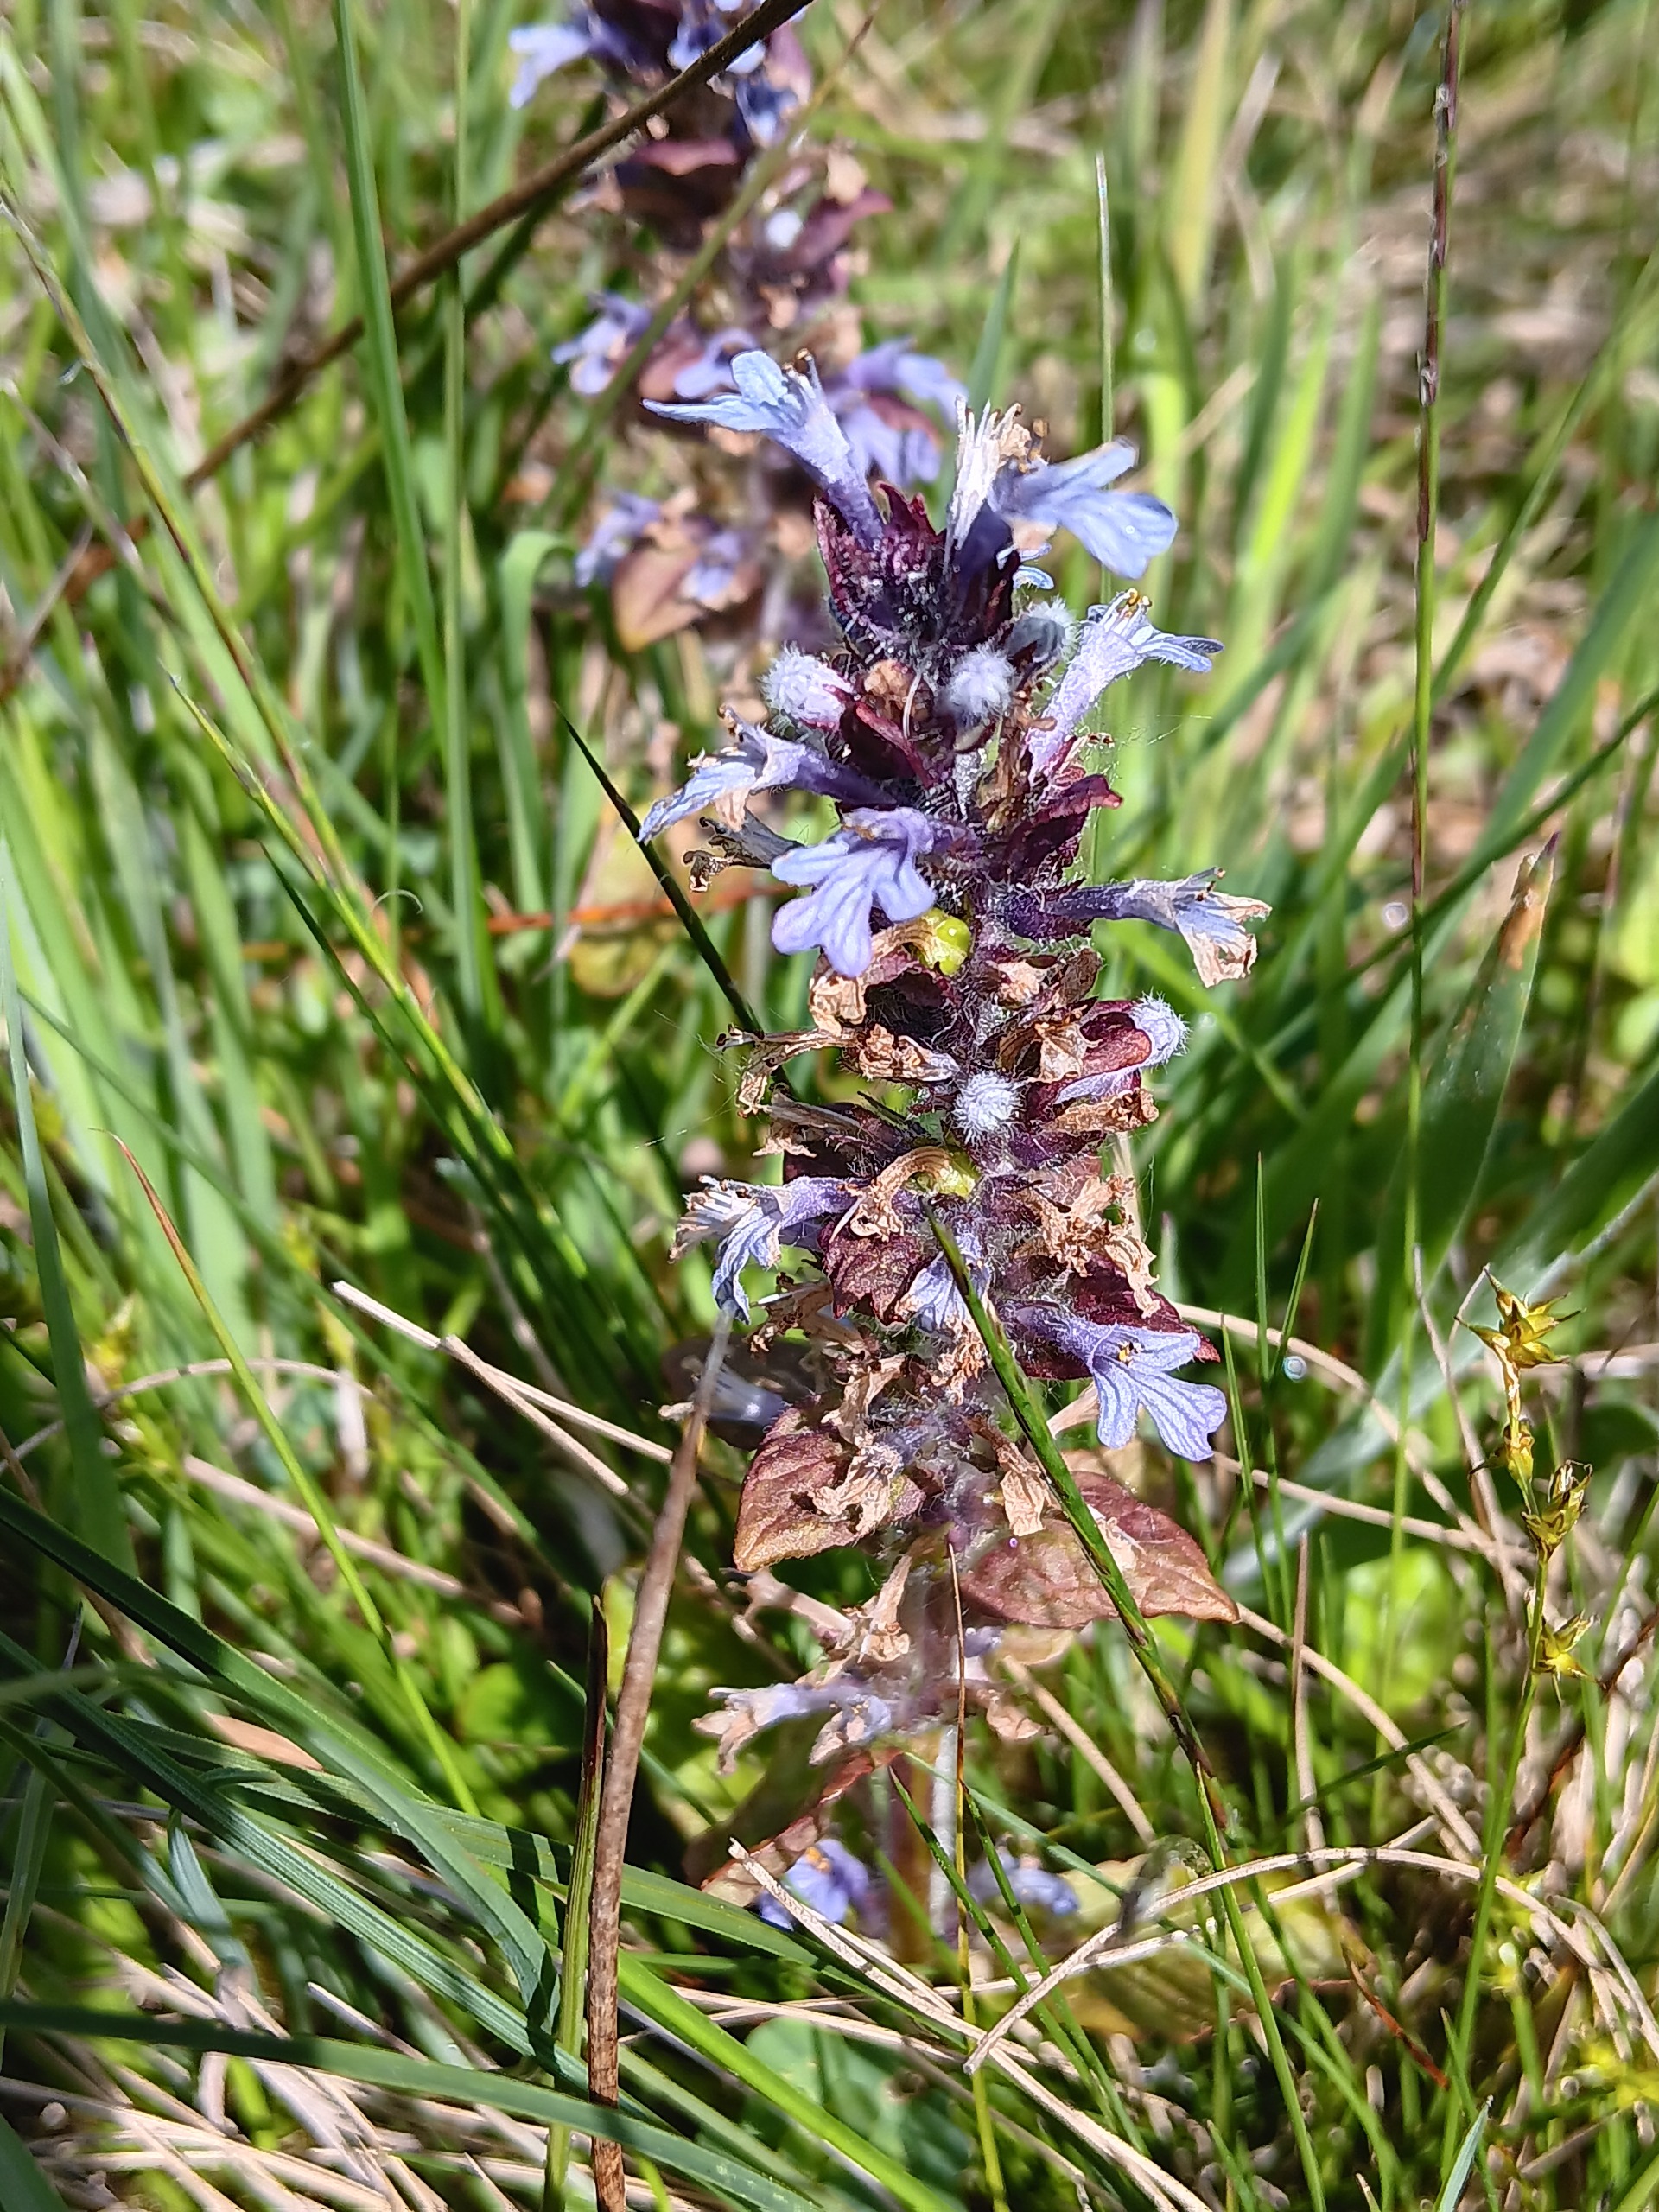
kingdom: Plantae
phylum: Tracheophyta
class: Magnoliopsida
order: Lamiales
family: Lamiaceae
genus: Ajuga
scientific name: Ajuga reptans
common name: Krybende læbeløs
